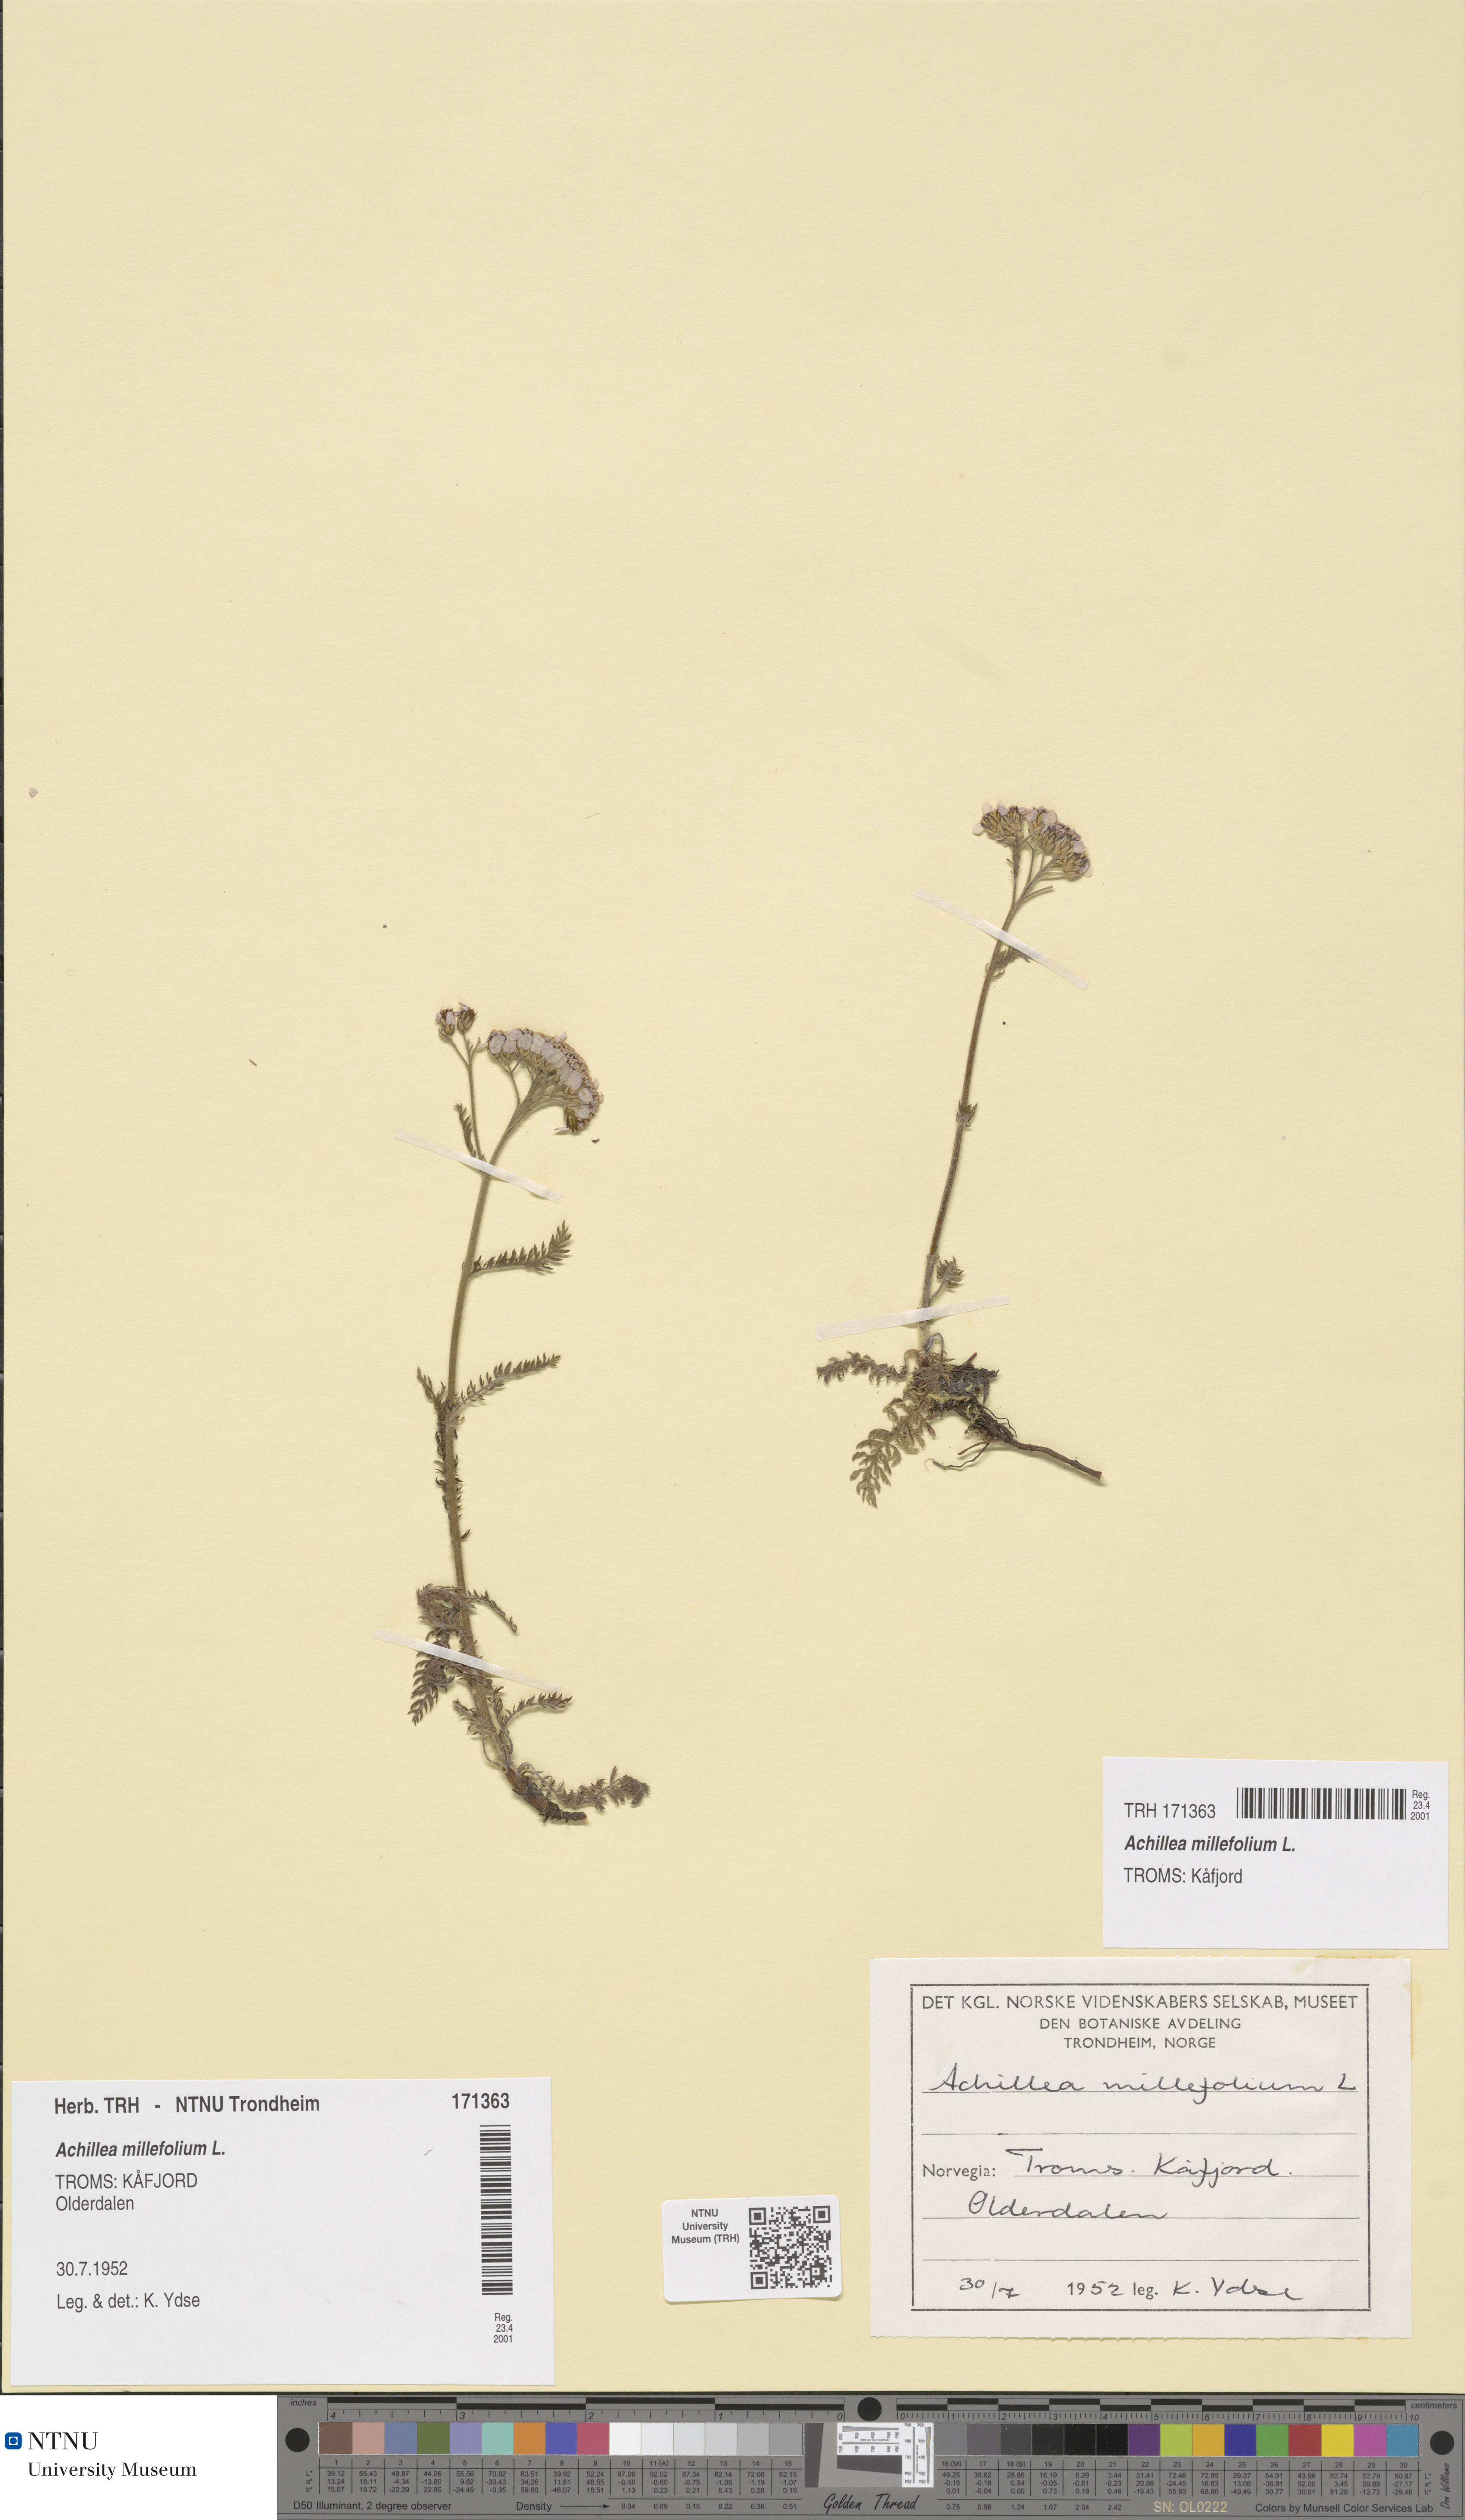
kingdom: Plantae
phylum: Tracheophyta
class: Magnoliopsida
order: Asterales
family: Asteraceae
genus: Achillea
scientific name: Achillea millefolium
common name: Yarrow
